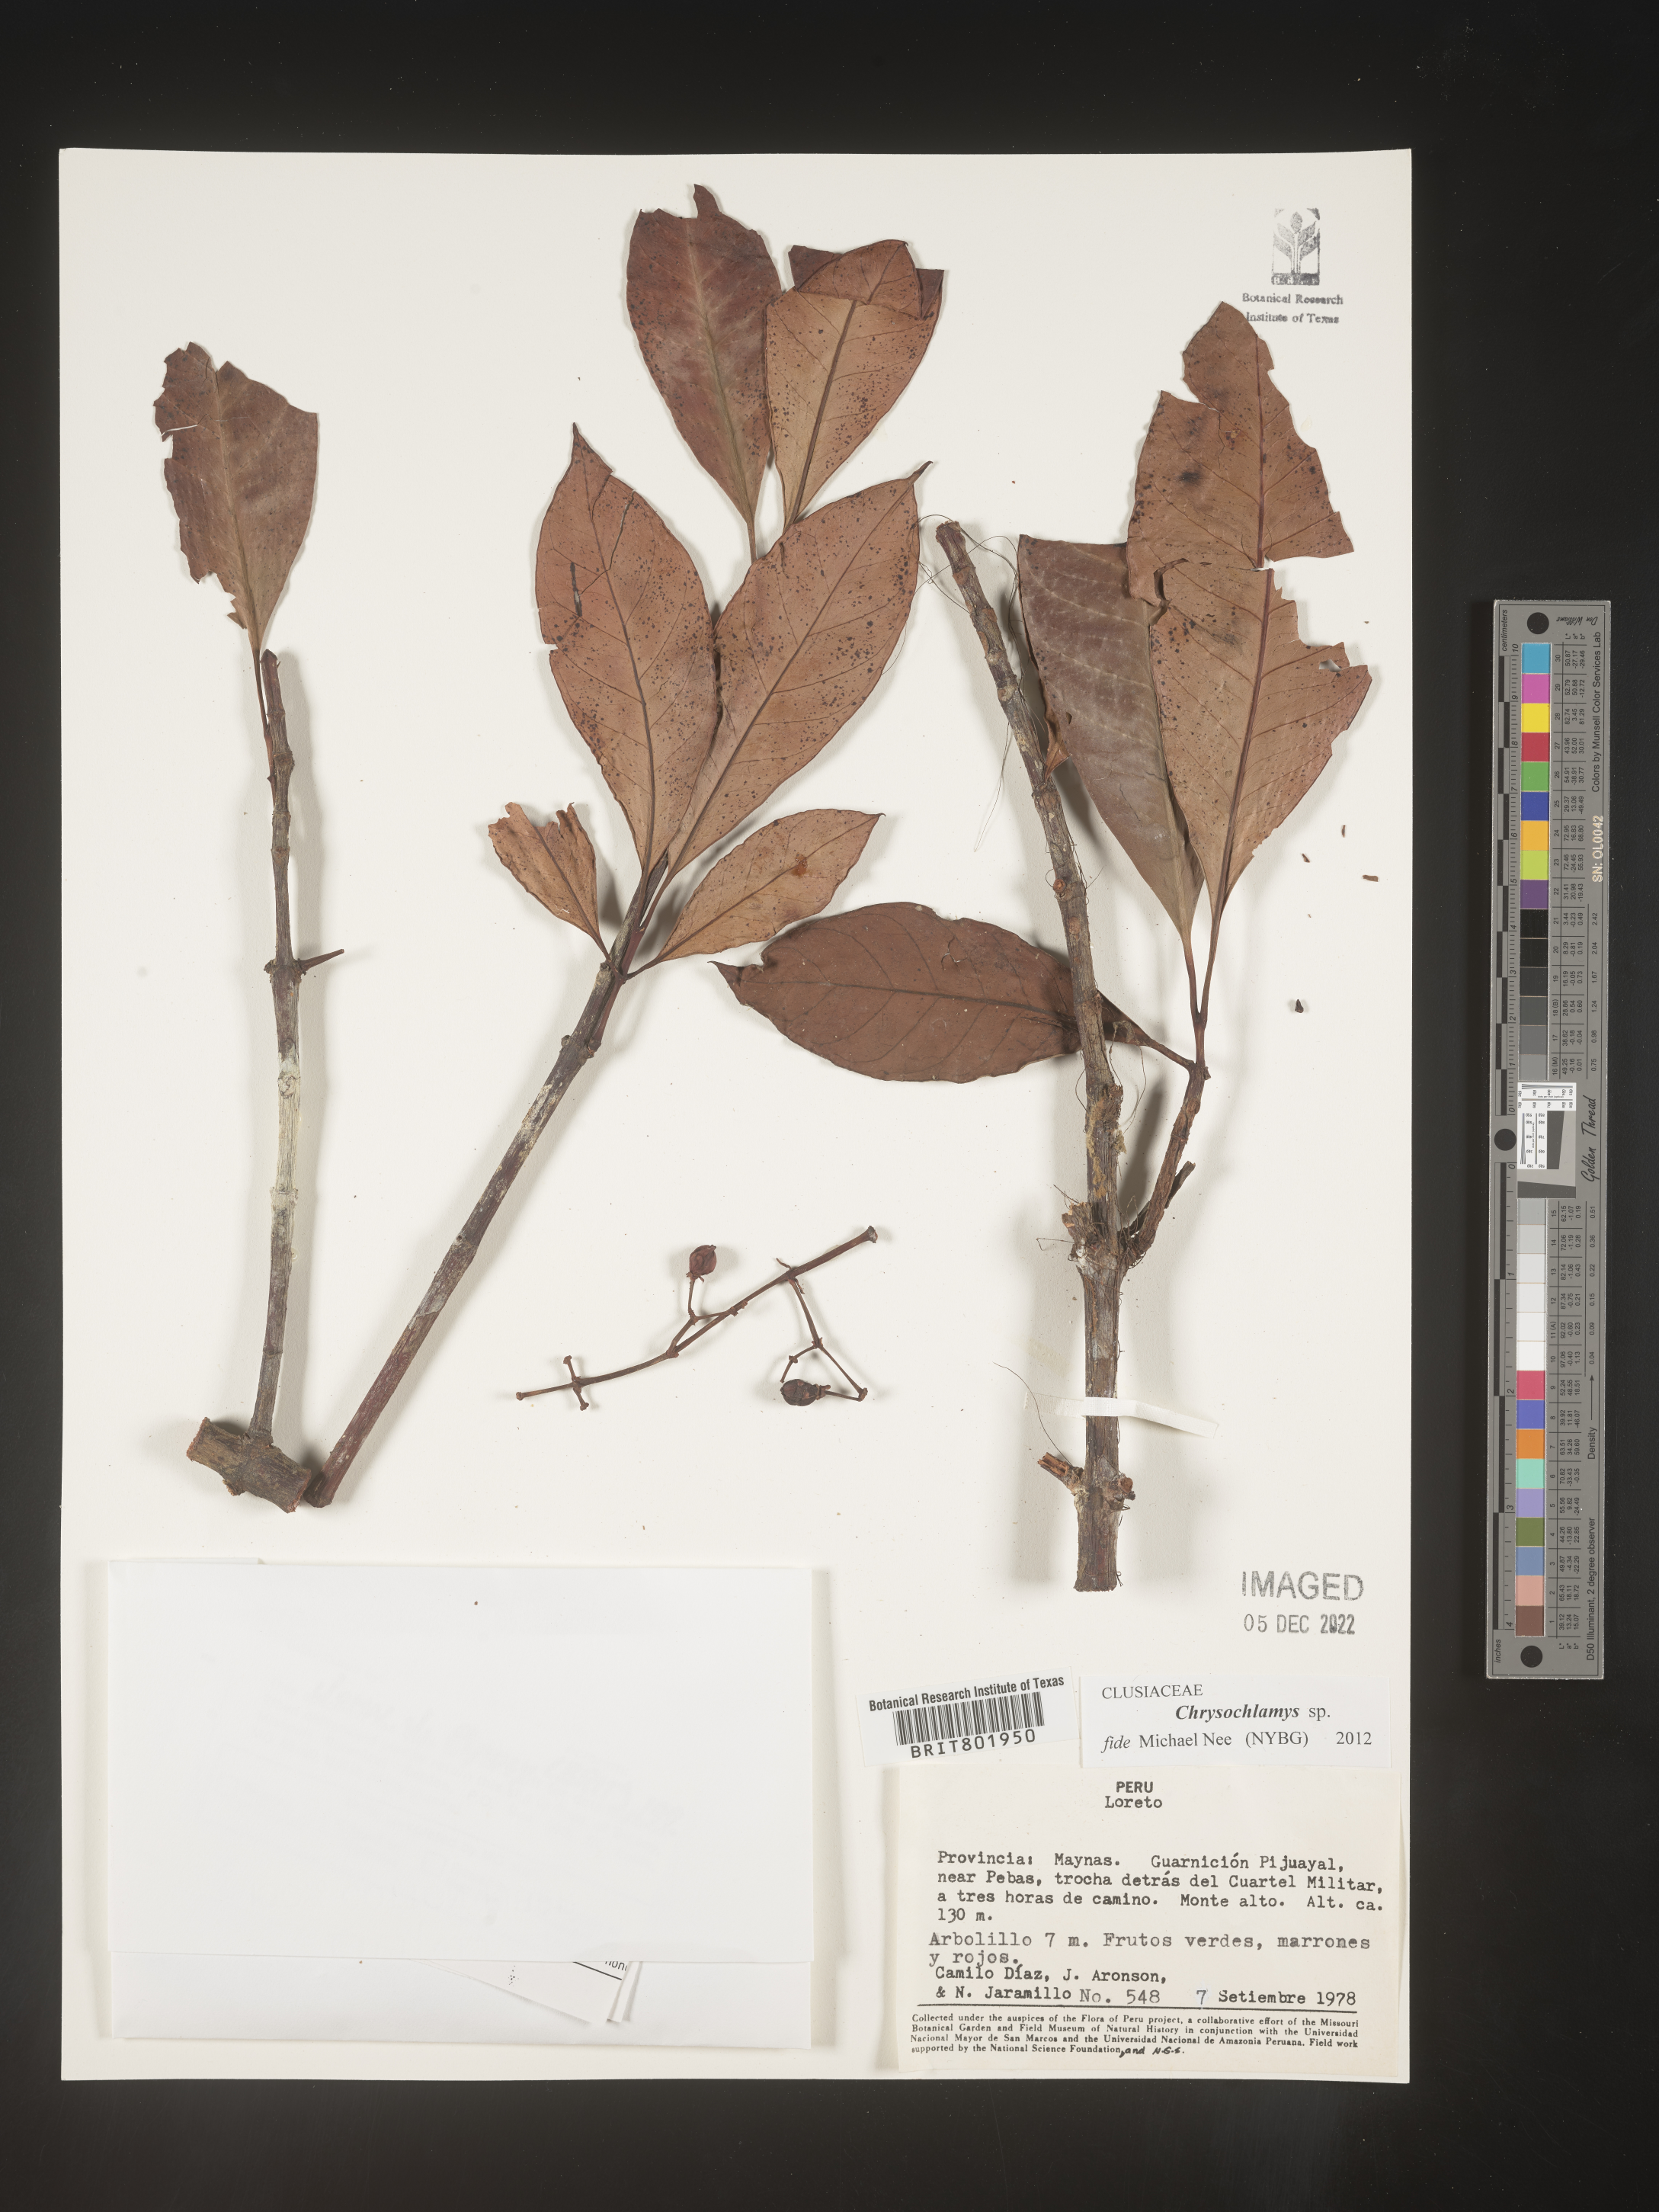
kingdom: Plantae
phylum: Tracheophyta
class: Magnoliopsida
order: Malpighiales
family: Clusiaceae
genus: Chrysochlamys
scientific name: Chrysochlamys
